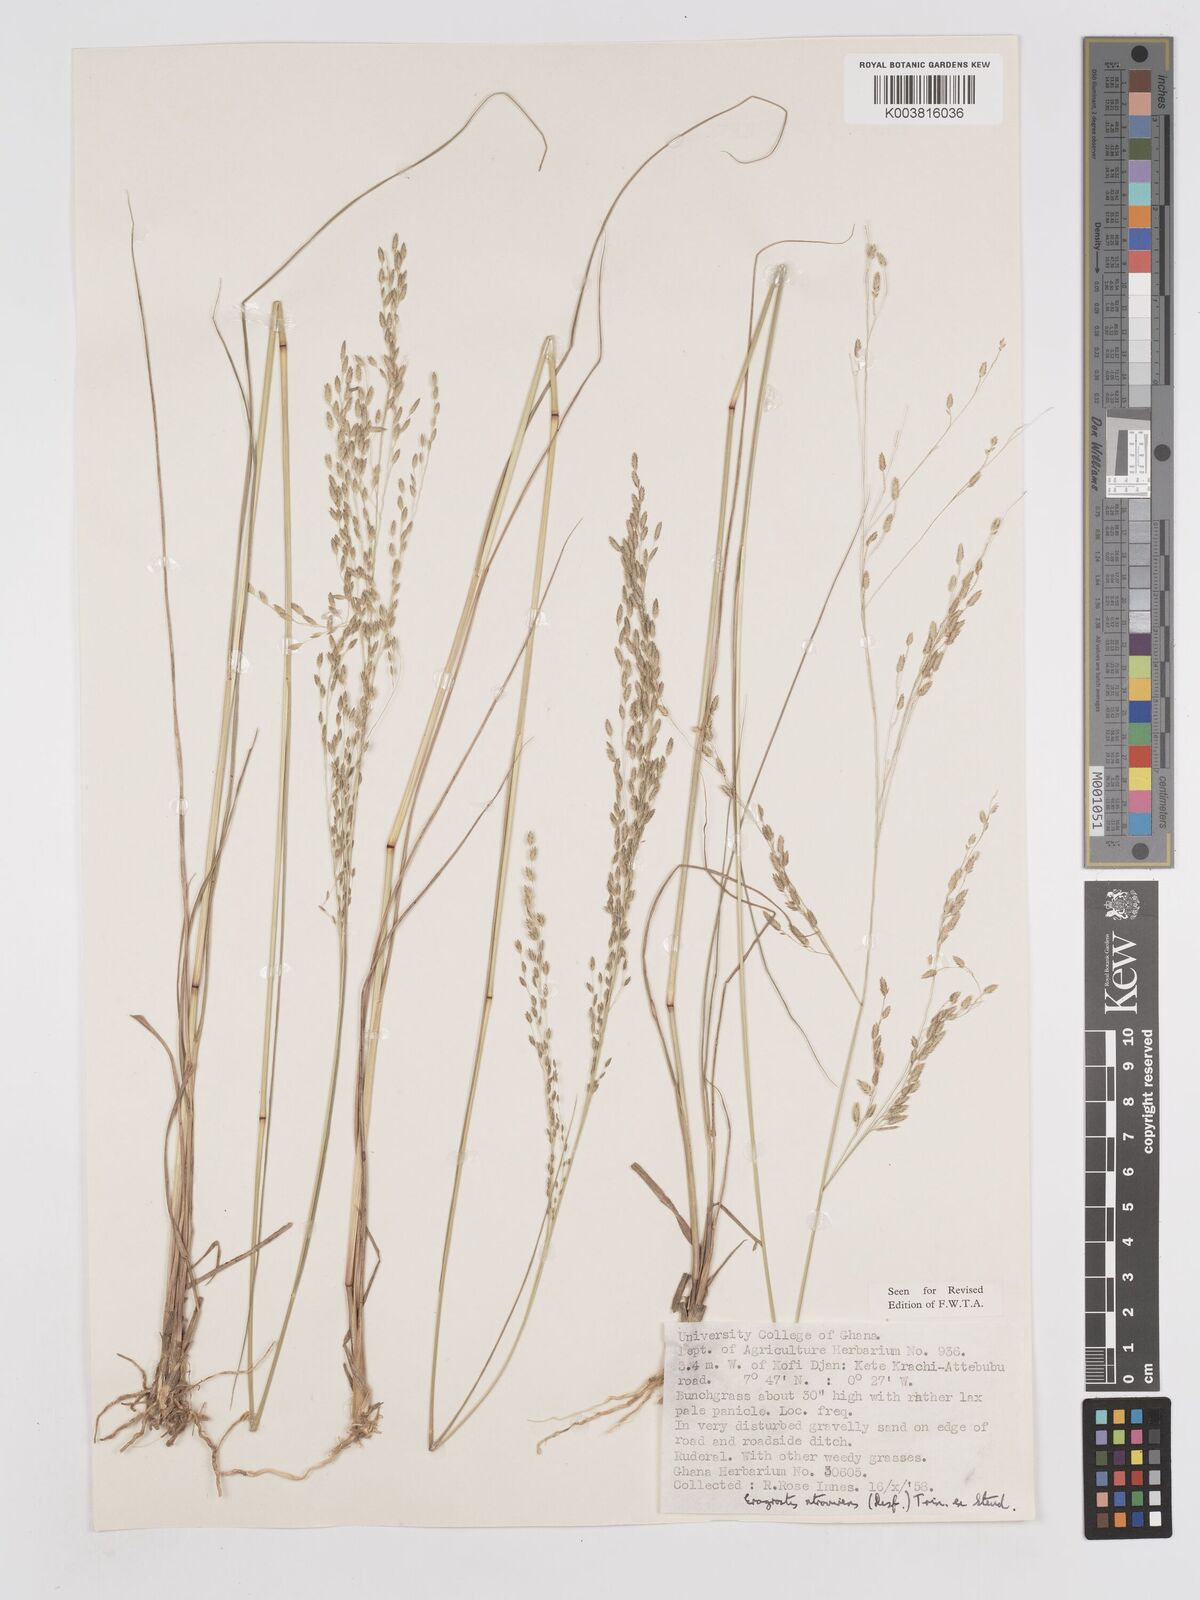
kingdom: Plantae
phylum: Tracheophyta
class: Liliopsida
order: Poales
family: Poaceae
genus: Eragrostis
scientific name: Eragrostis atrovirens
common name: Thalia lovegrass
